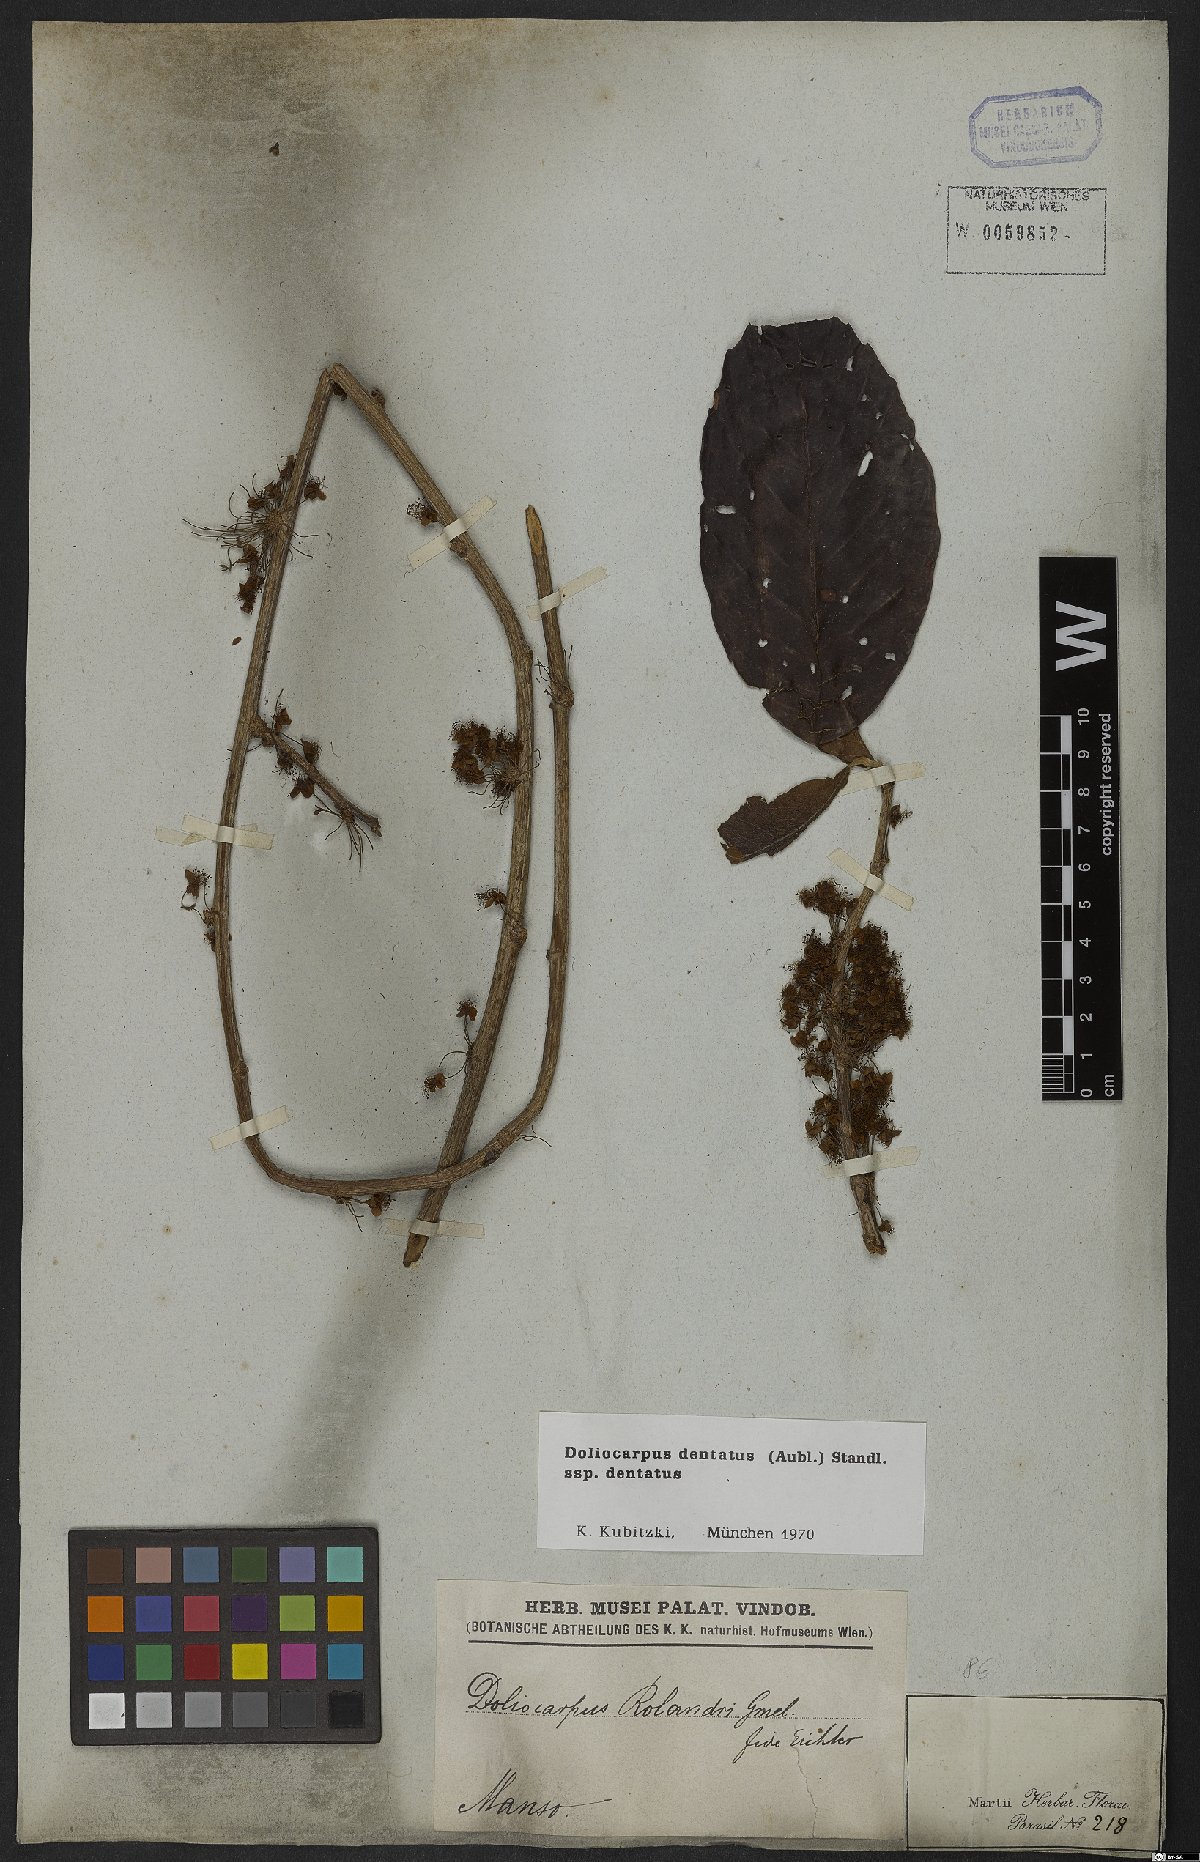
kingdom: Plantae
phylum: Tracheophyta
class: Magnoliopsida
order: Dilleniales
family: Dilleniaceae
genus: Doliocarpus
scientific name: Doliocarpus dentatus
